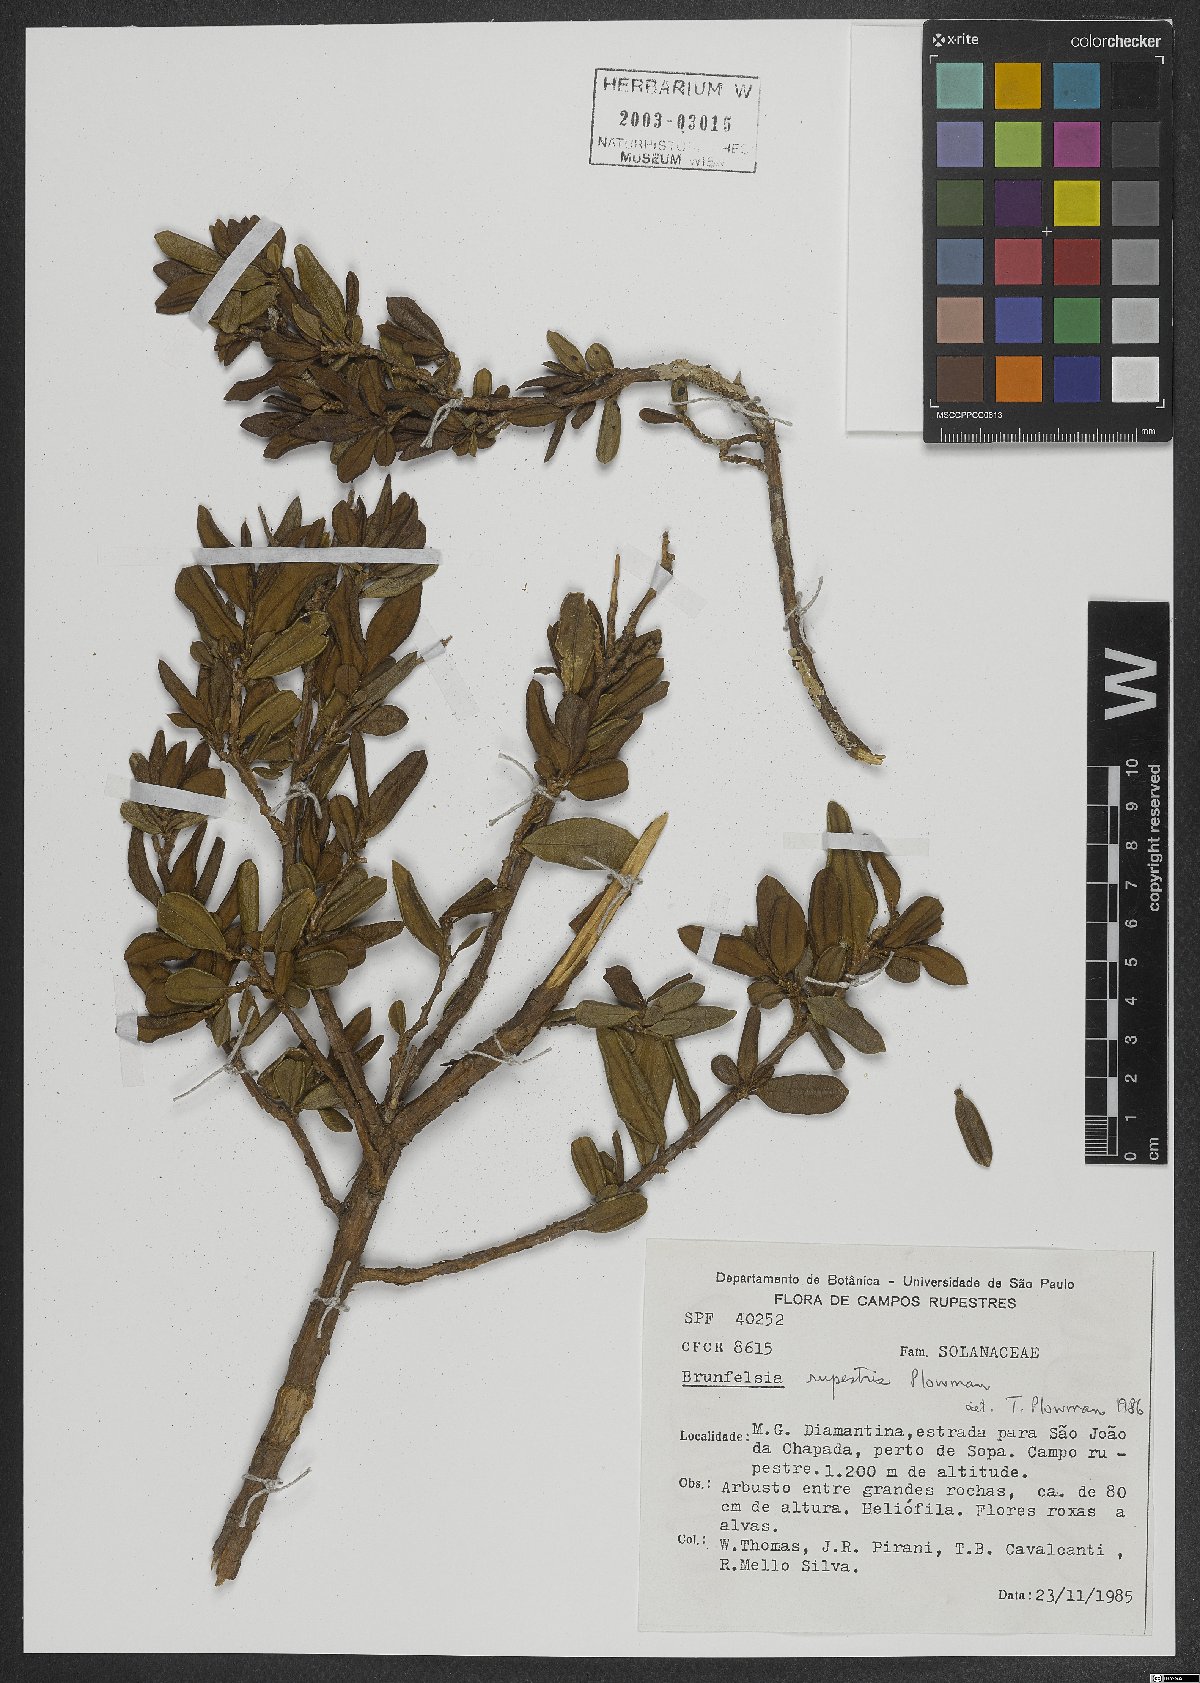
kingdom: Plantae
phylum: Tracheophyta
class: Magnoliopsida
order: Solanales
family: Solanaceae
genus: Brunfelsia
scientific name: Brunfelsia rupestris
